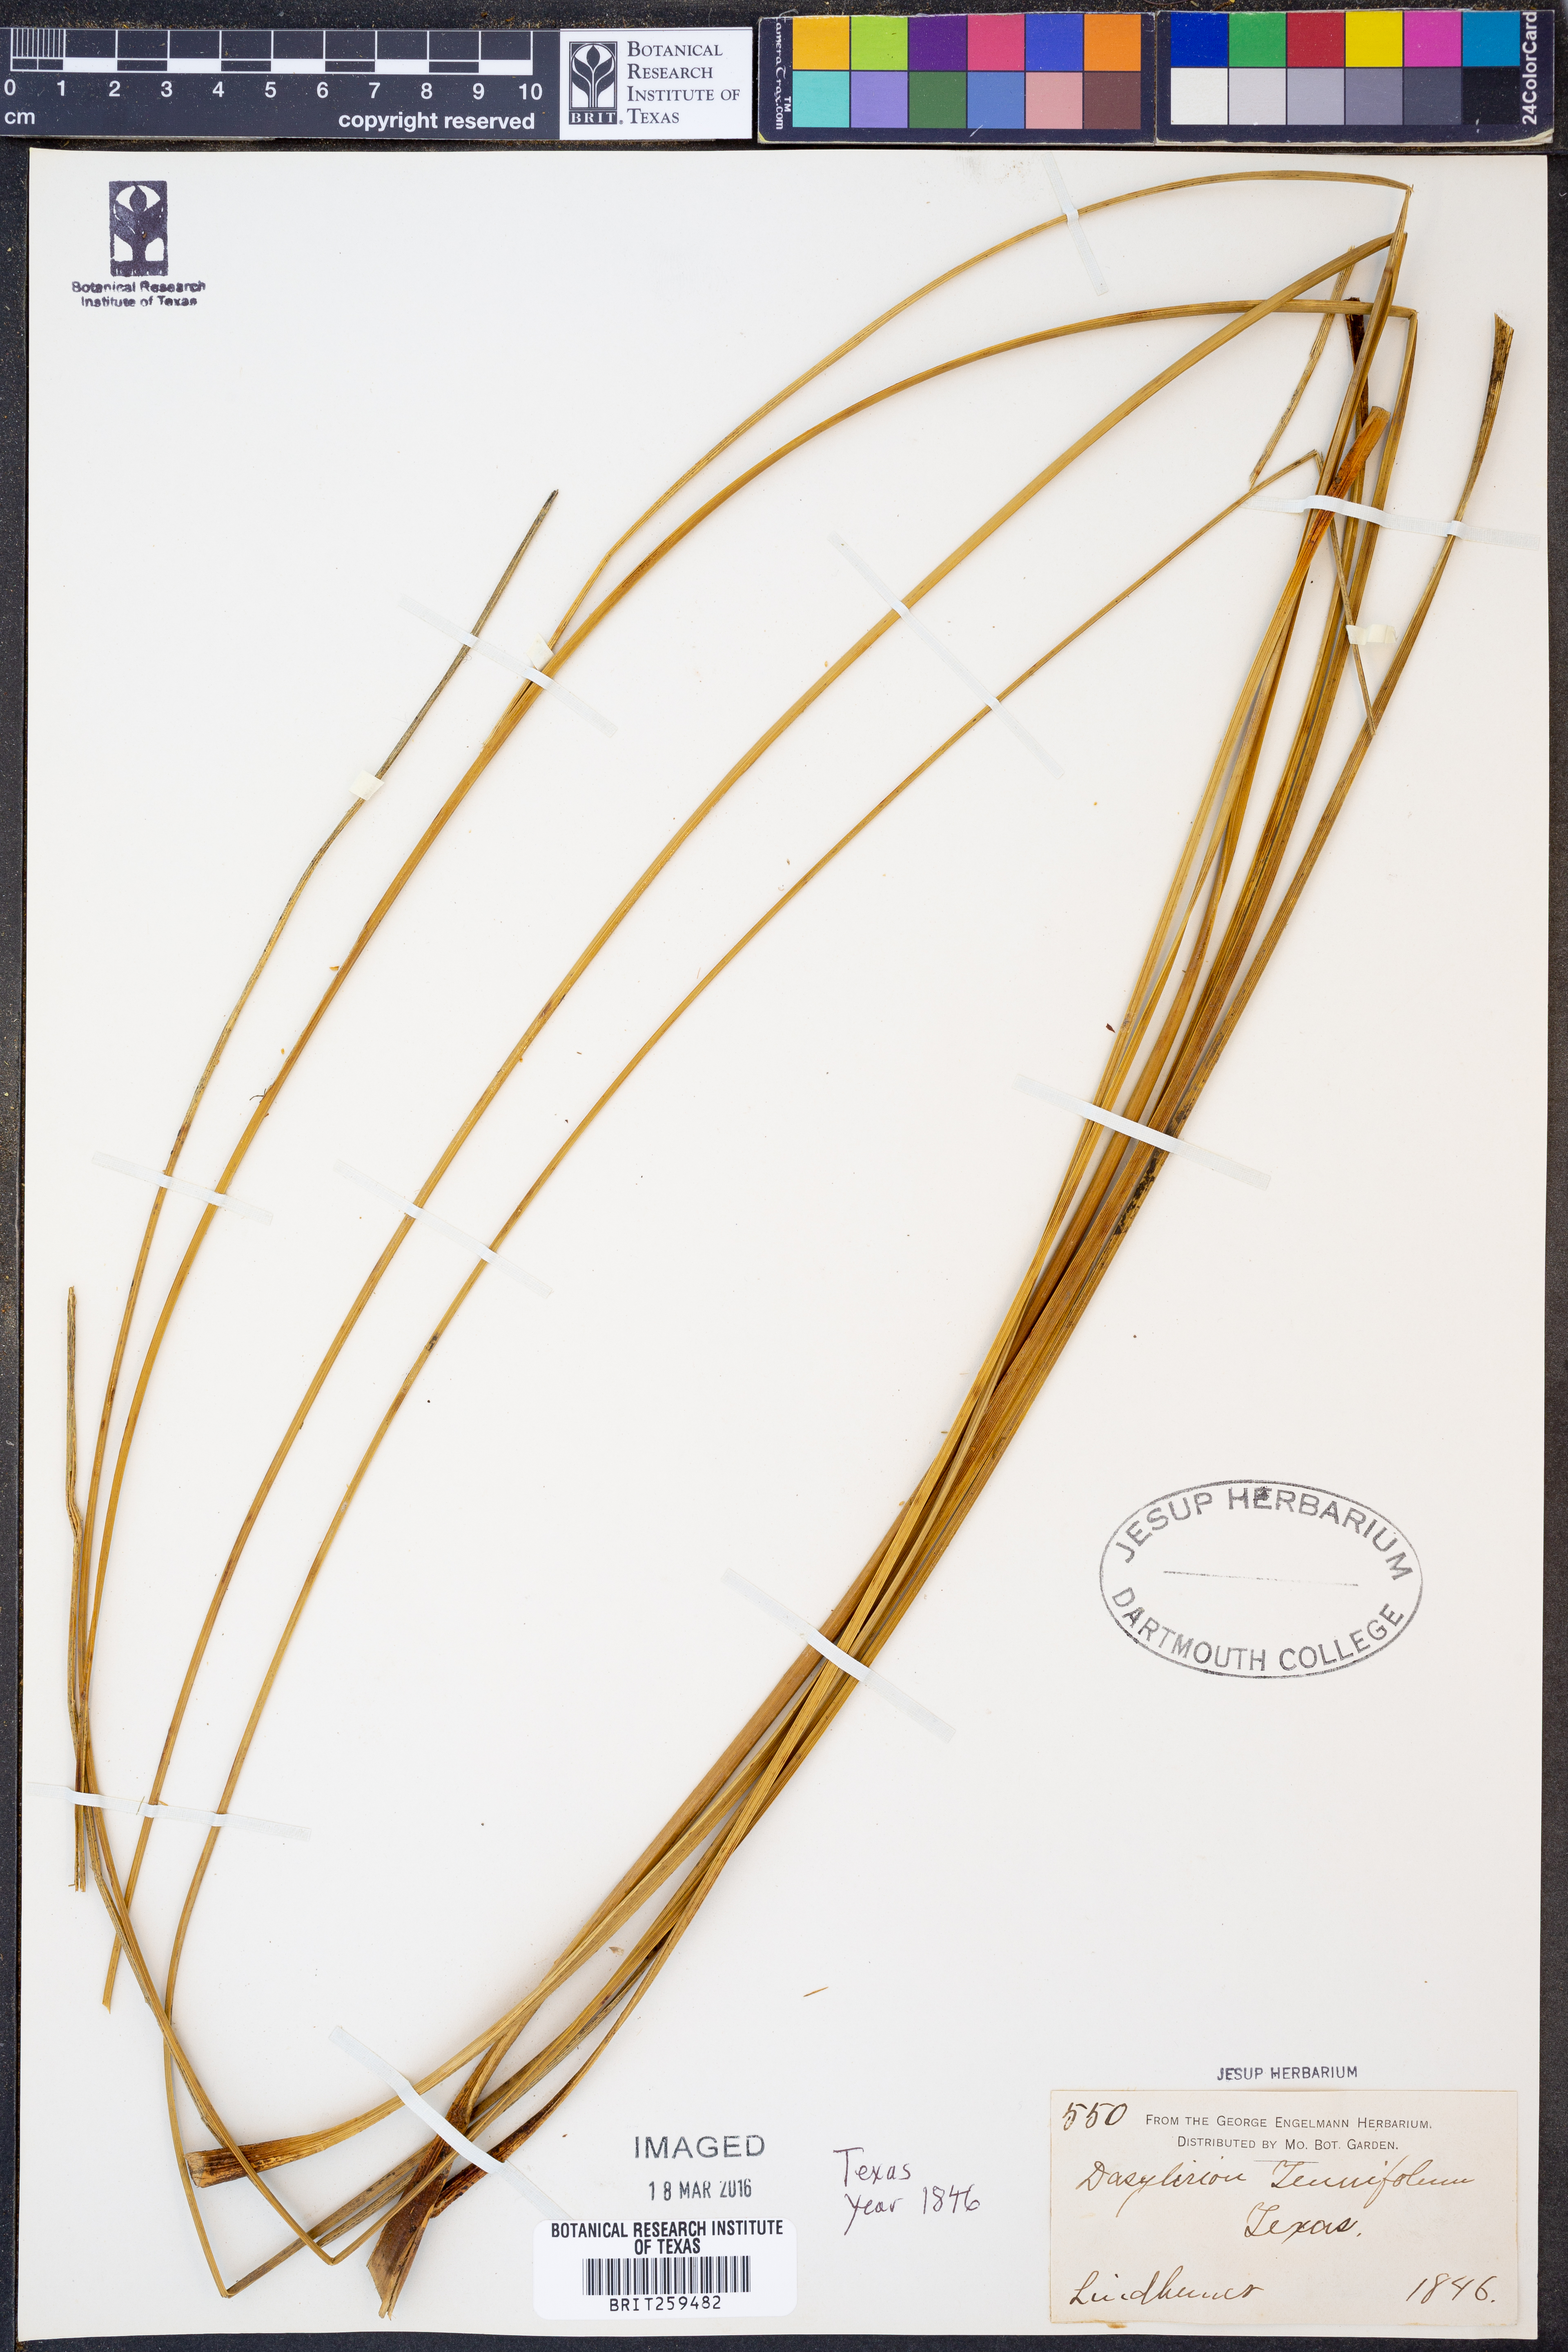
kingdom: Plantae
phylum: Tracheophyta
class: Liliopsida
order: Asparagales
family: Asparagaceae
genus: Nolina
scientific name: Nolina lindheimeriana
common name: Lindheimer's bear-grass
